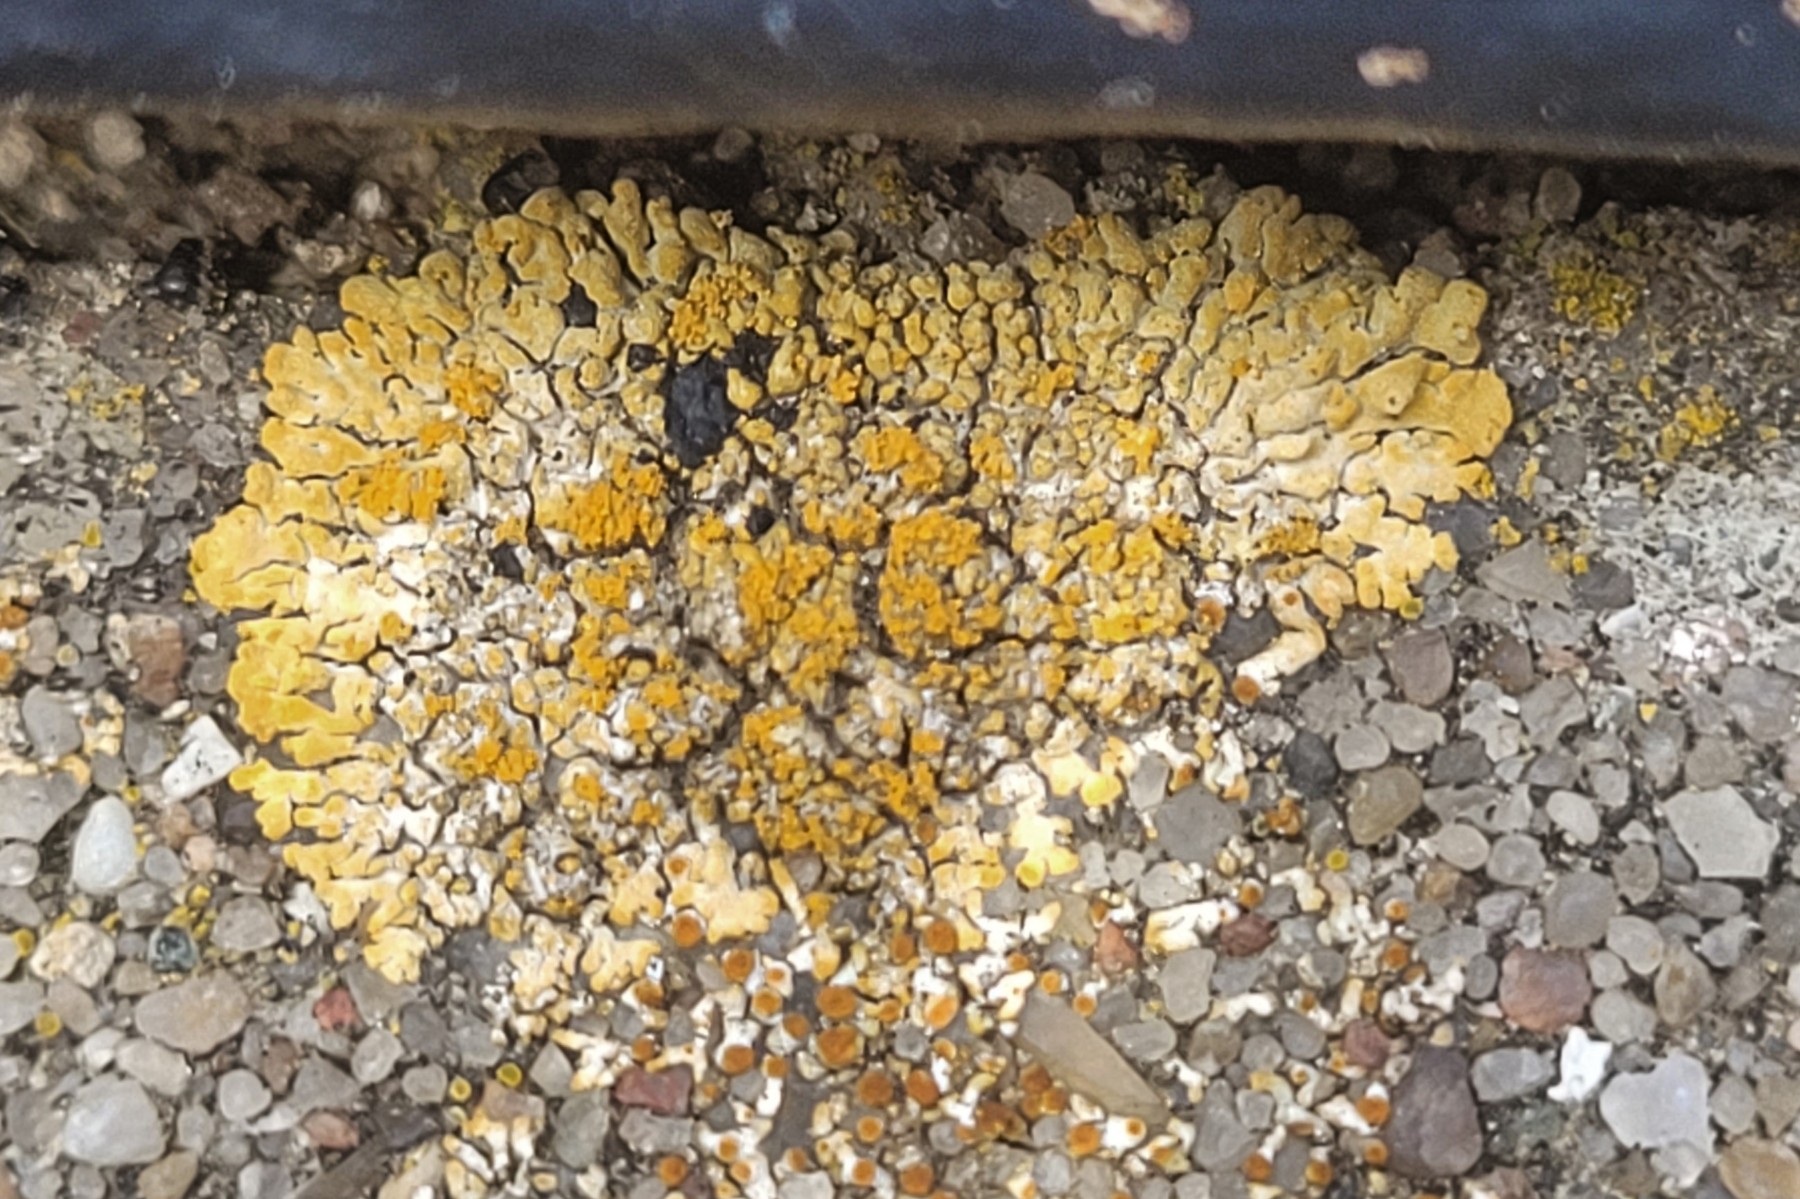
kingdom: Fungi
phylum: Ascomycota
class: Lecanoromycetes
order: Teloschistales
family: Teloschistaceae
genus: Calogaya
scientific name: Calogaya decipiens
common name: knudret orangelav
